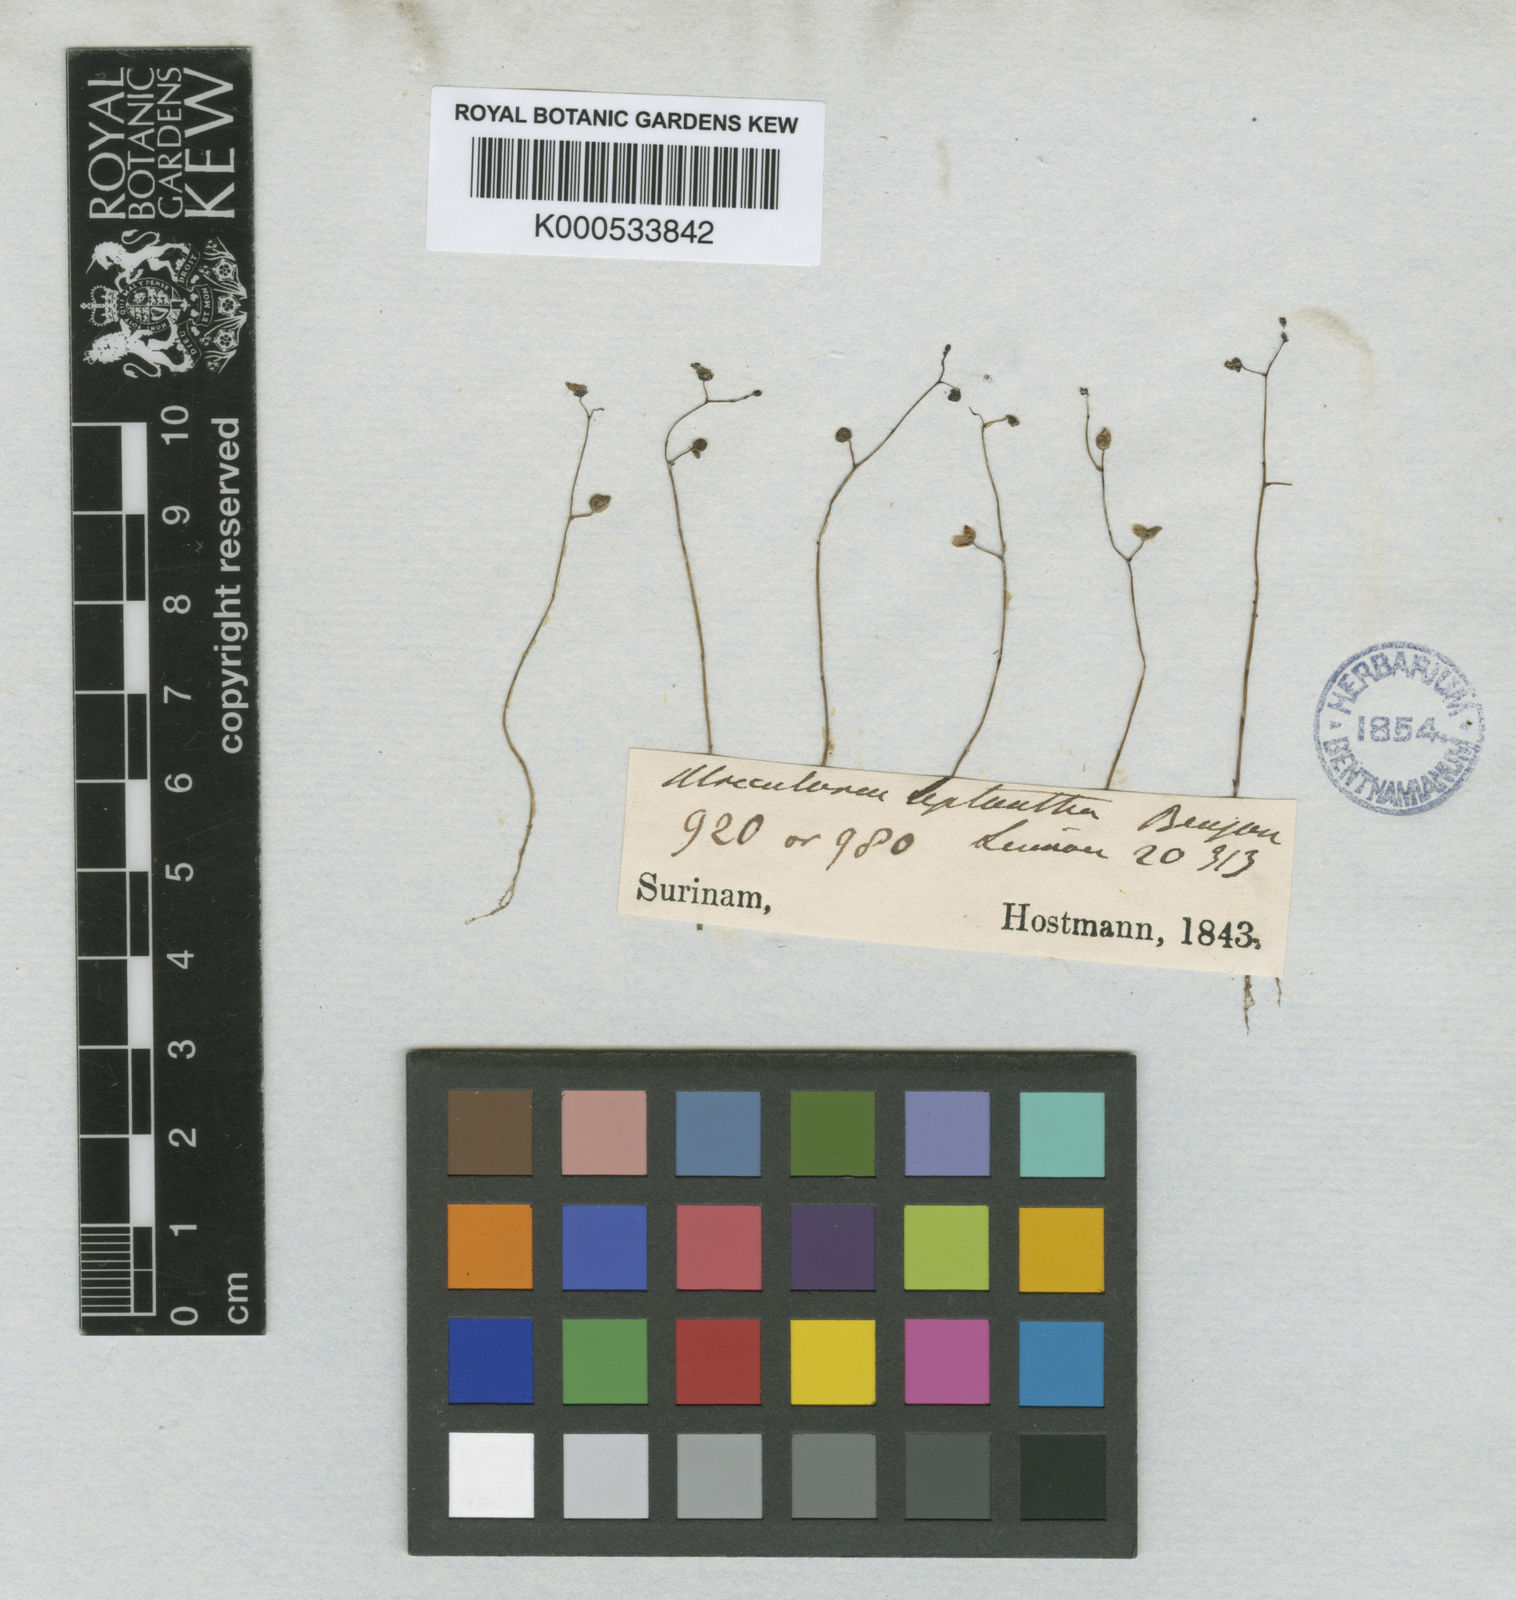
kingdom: Plantae
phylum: Tracheophyta
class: Magnoliopsida
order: Lamiales
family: Lentibulariaceae
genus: Utricularia
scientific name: Utricularia pusilla
